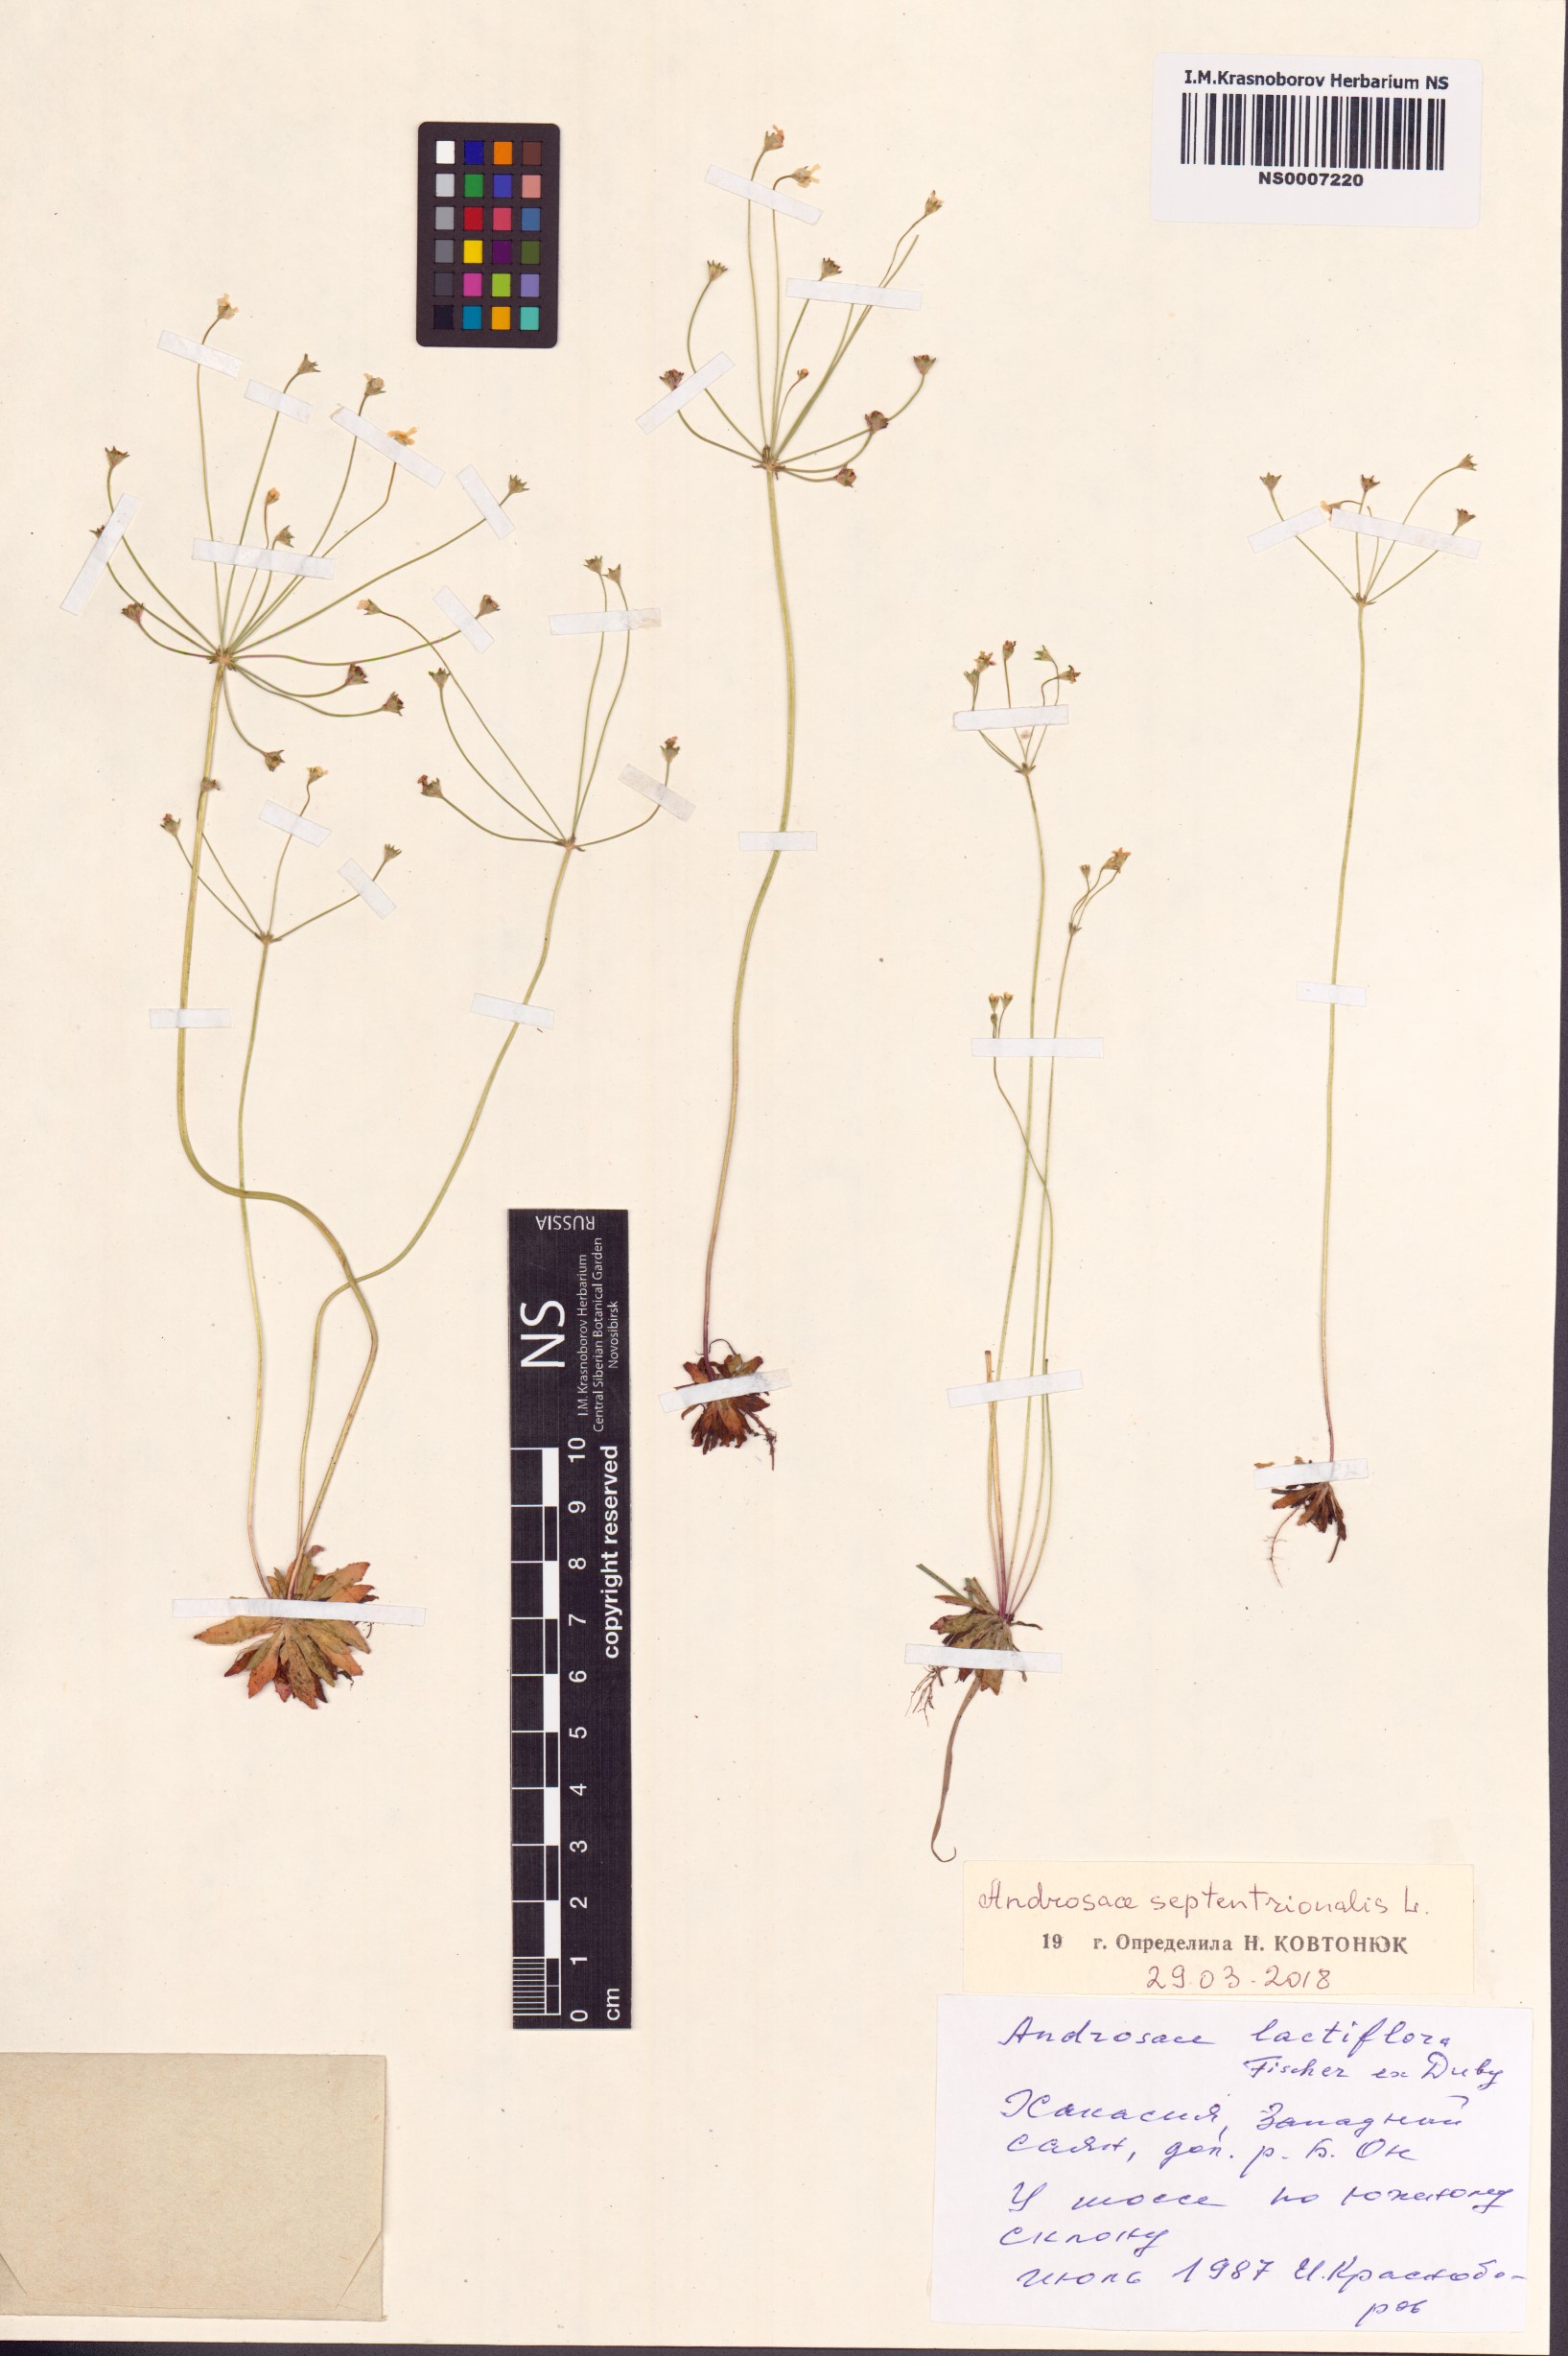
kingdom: Plantae
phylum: Tracheophyta
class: Magnoliopsida
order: Ericales
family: Primulaceae
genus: Androsace
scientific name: Androsace septentrionalis
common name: Hairy northern fairy-candelabra
